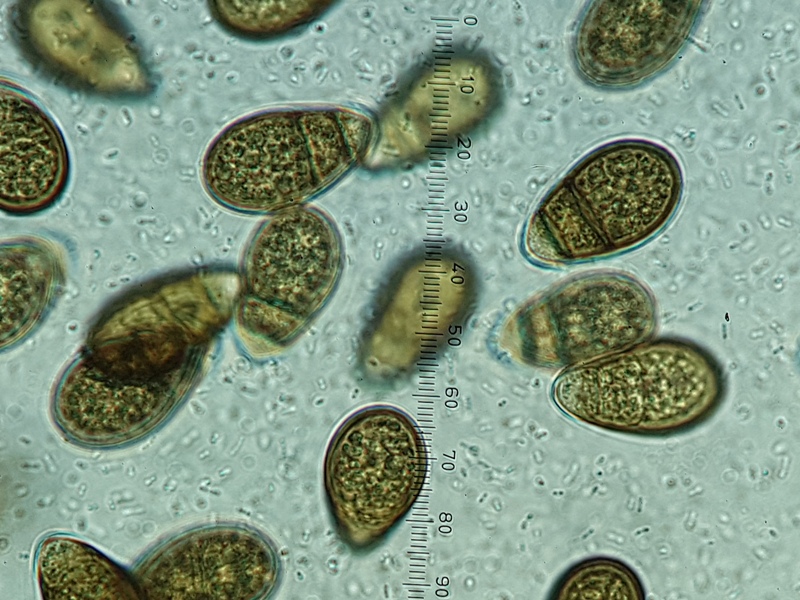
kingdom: Fungi
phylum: Ascomycota
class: Dothideomycetes
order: Pleosporales
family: Pleomassariaceae
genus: Splanchnonema
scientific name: Splanchnonema loricatum
